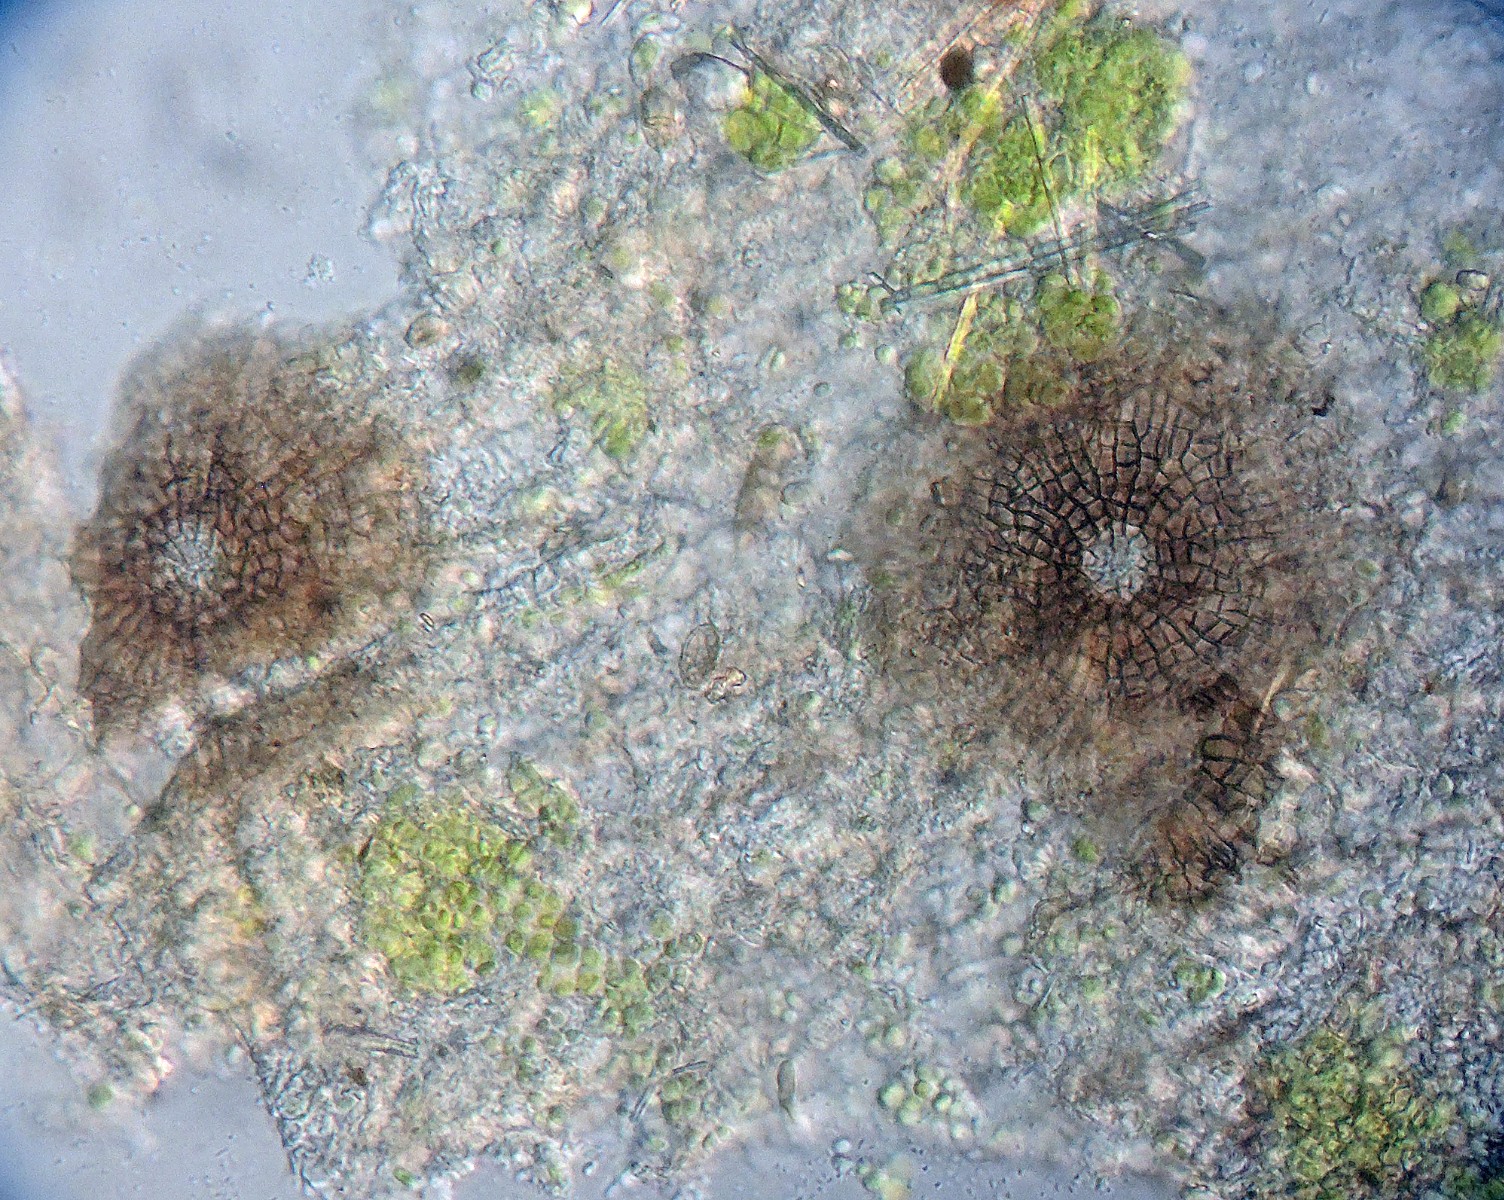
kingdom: Fungi
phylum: Ascomycota
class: Dothideomycetes
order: Microthyriales
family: Microthyriaceae
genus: Microthyrium
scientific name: Microthyrium gramineum
